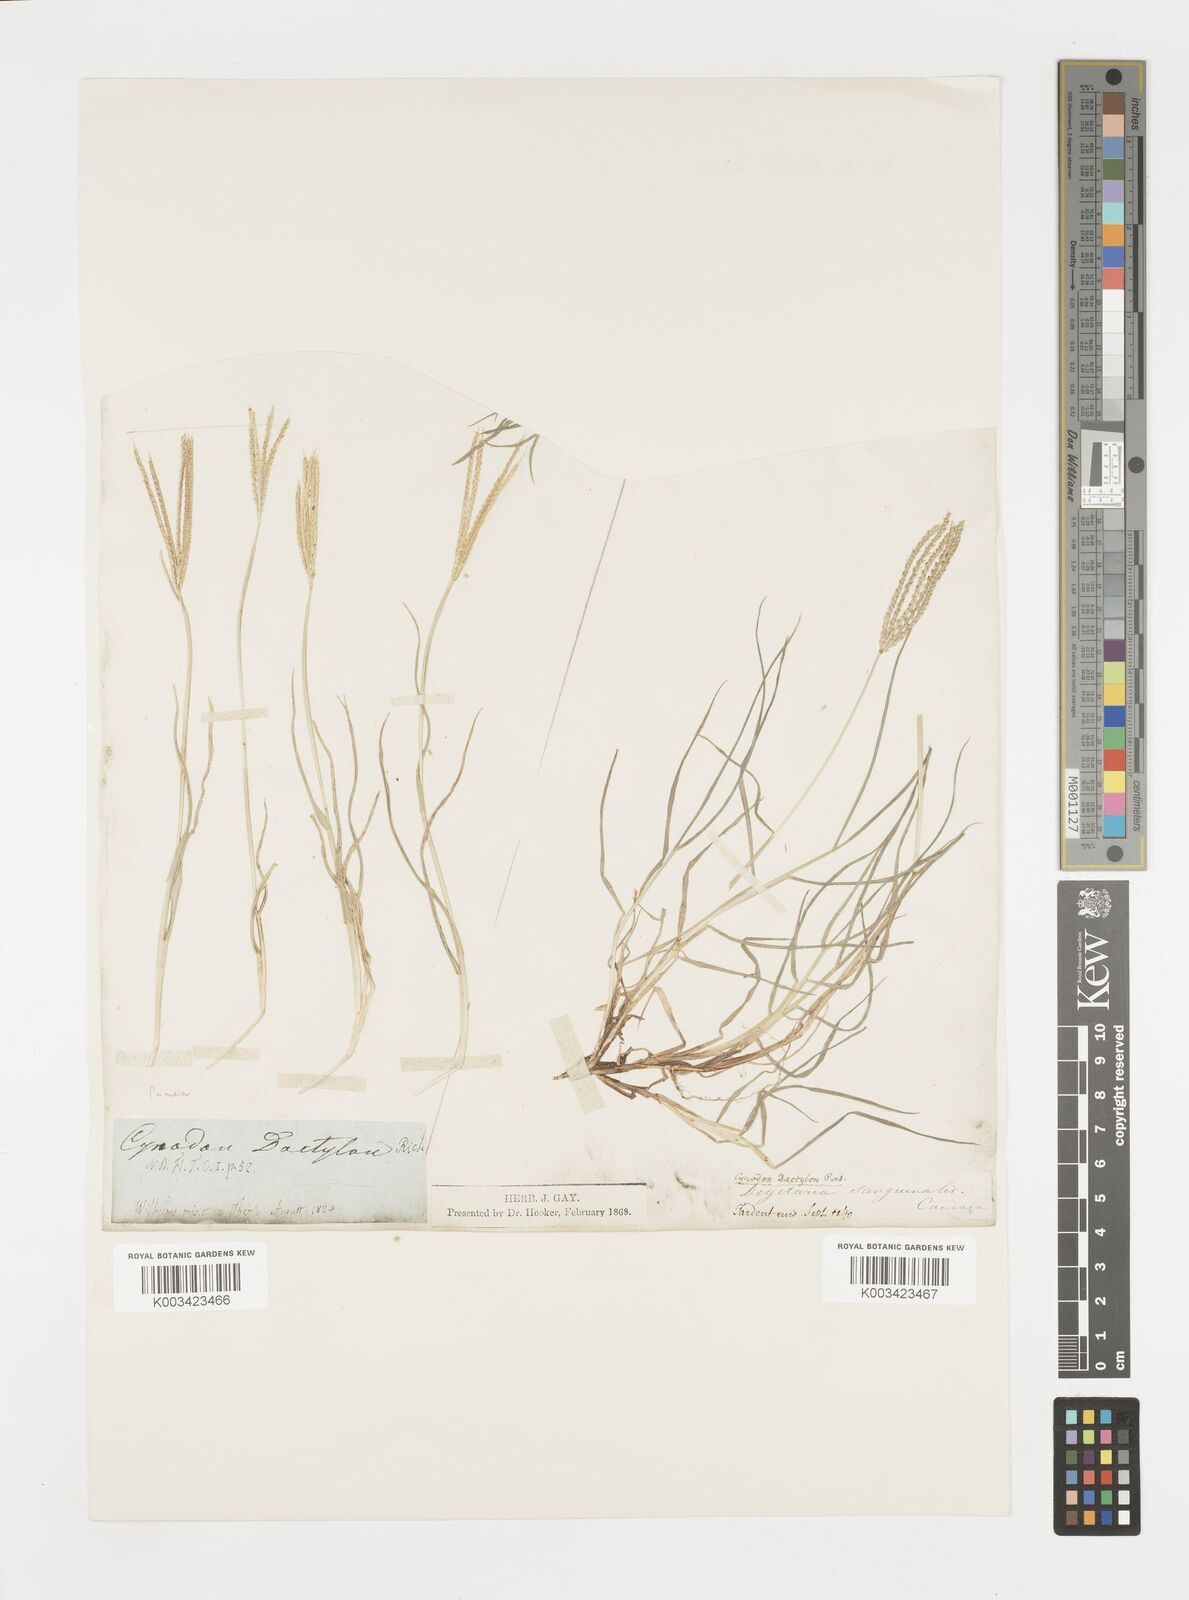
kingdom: Plantae
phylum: Tracheophyta
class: Liliopsida
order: Poales
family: Poaceae
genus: Cynodon
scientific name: Cynodon dactylon
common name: Bermuda grass
